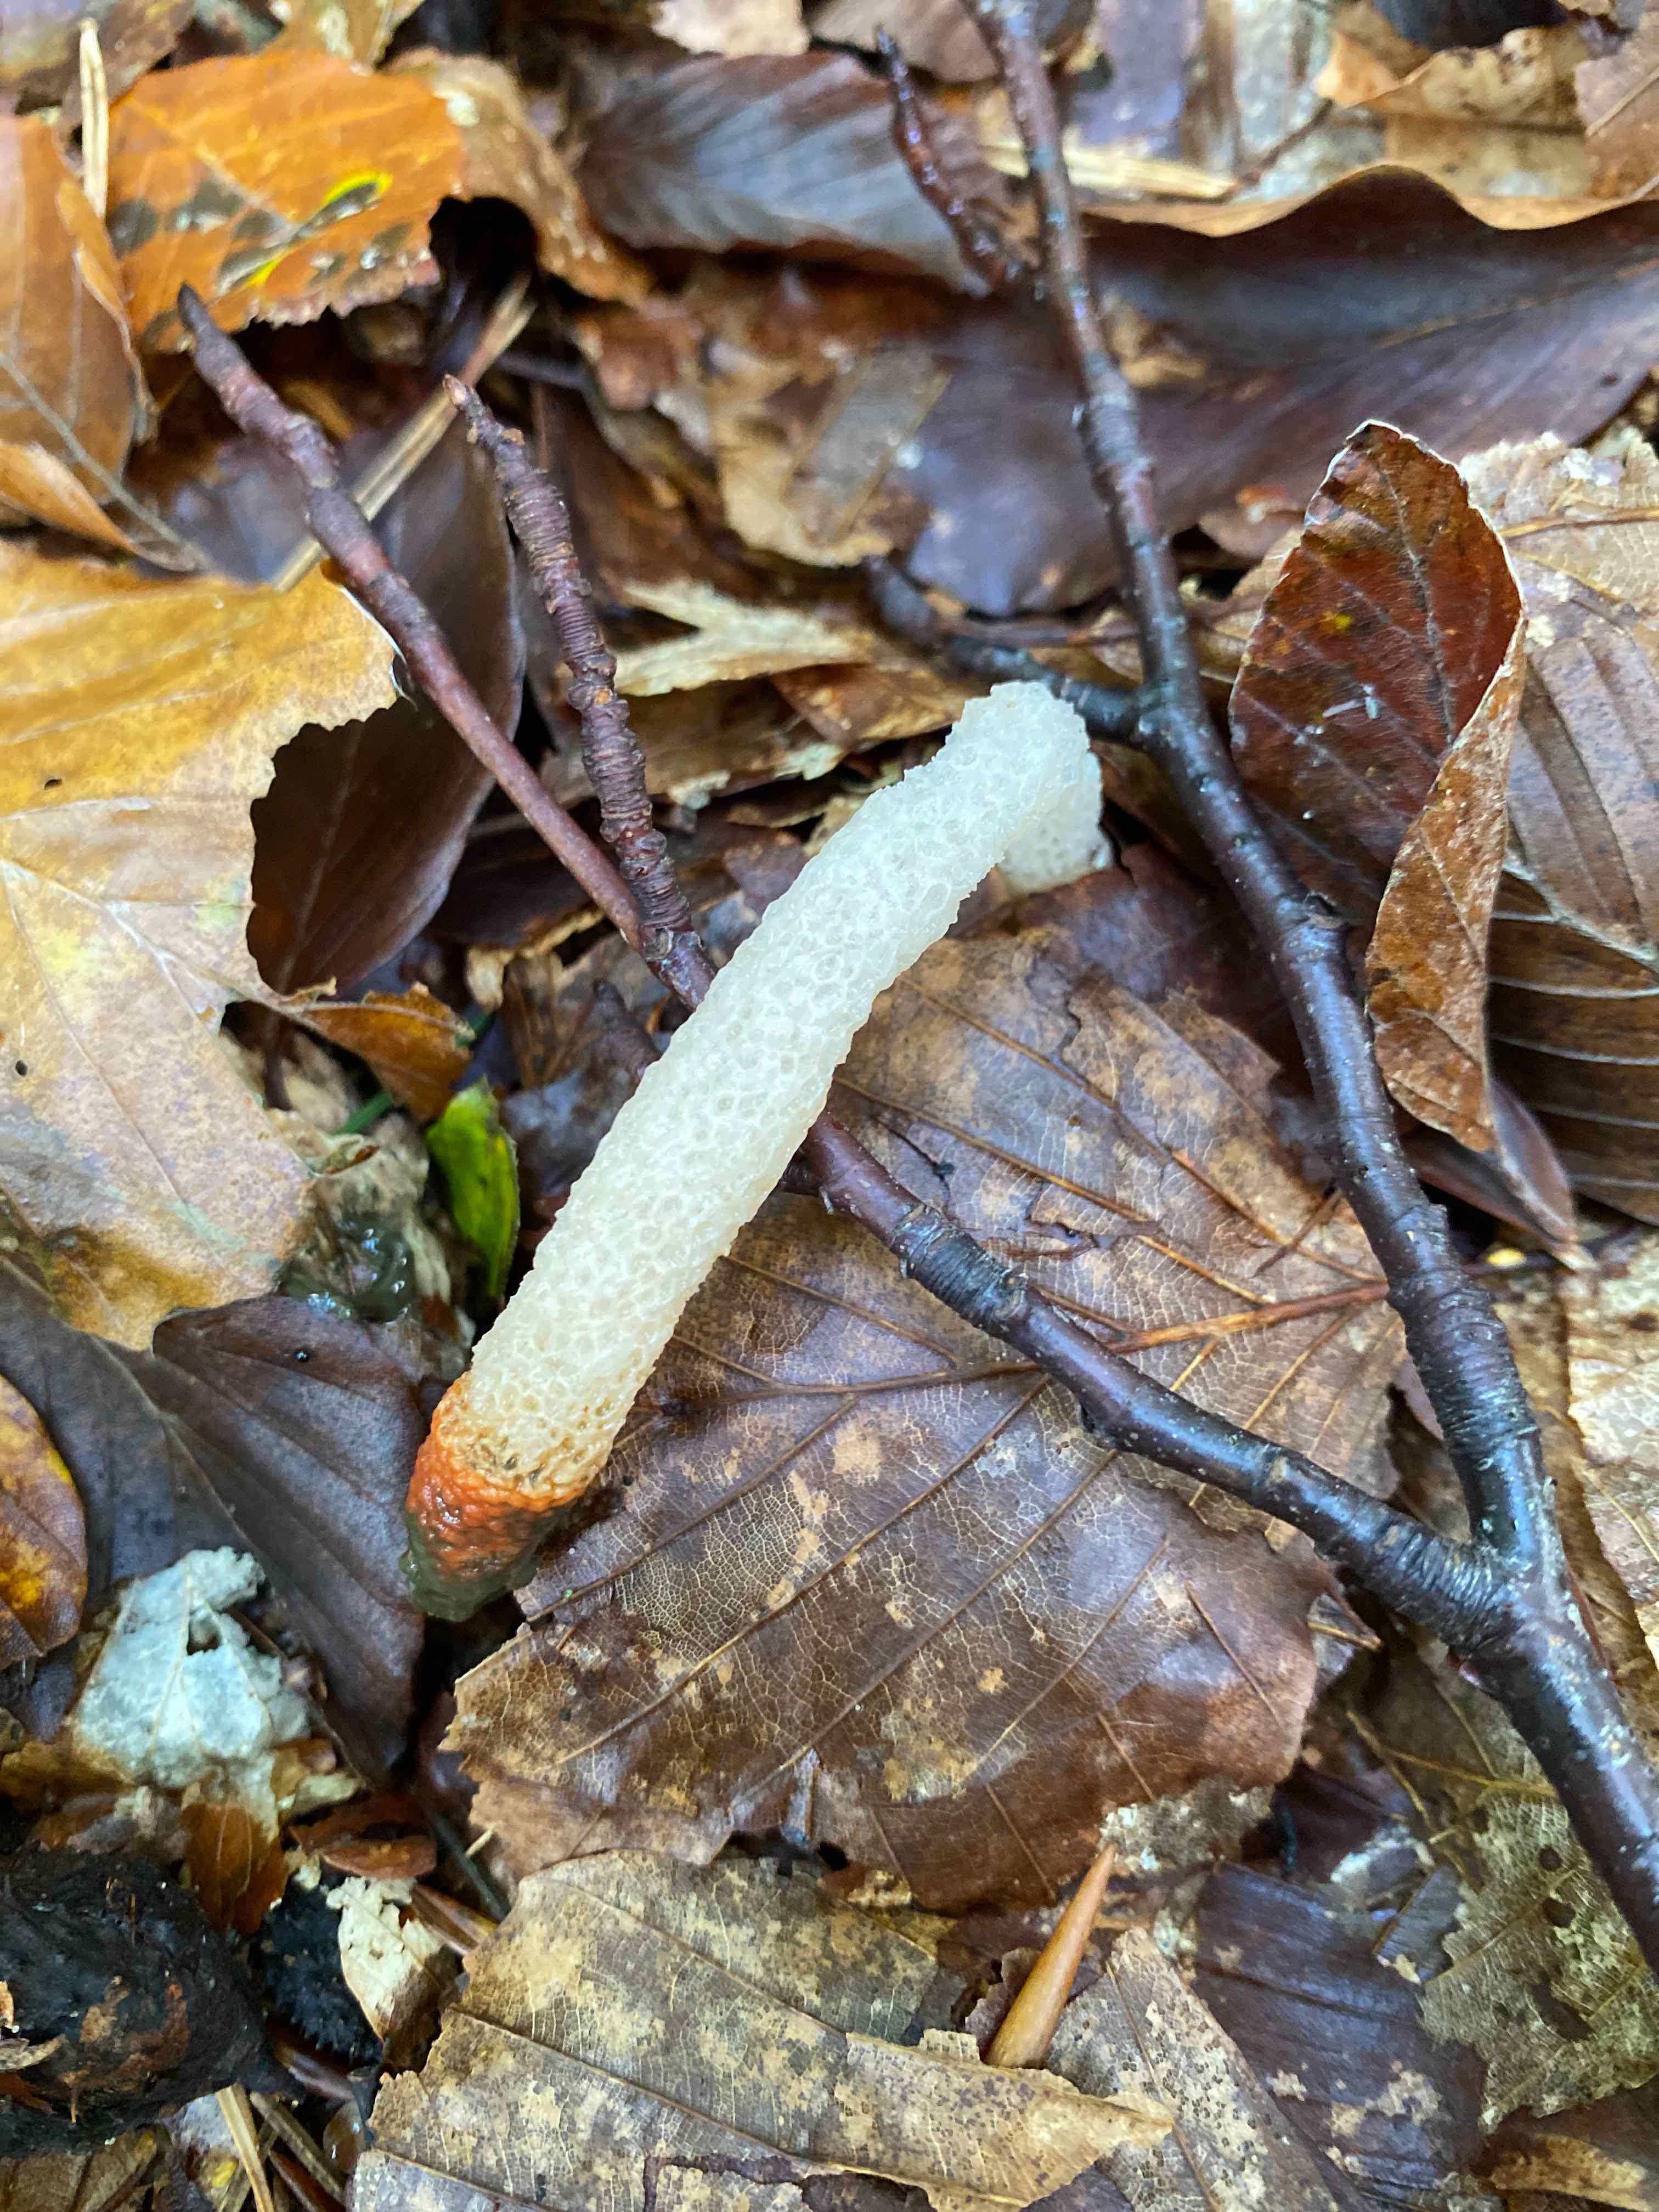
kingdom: Fungi
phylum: Basidiomycota
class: Agaricomycetes
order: Phallales
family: Phallaceae
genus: Mutinus
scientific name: Mutinus caninus
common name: hunde-stinksvamp
